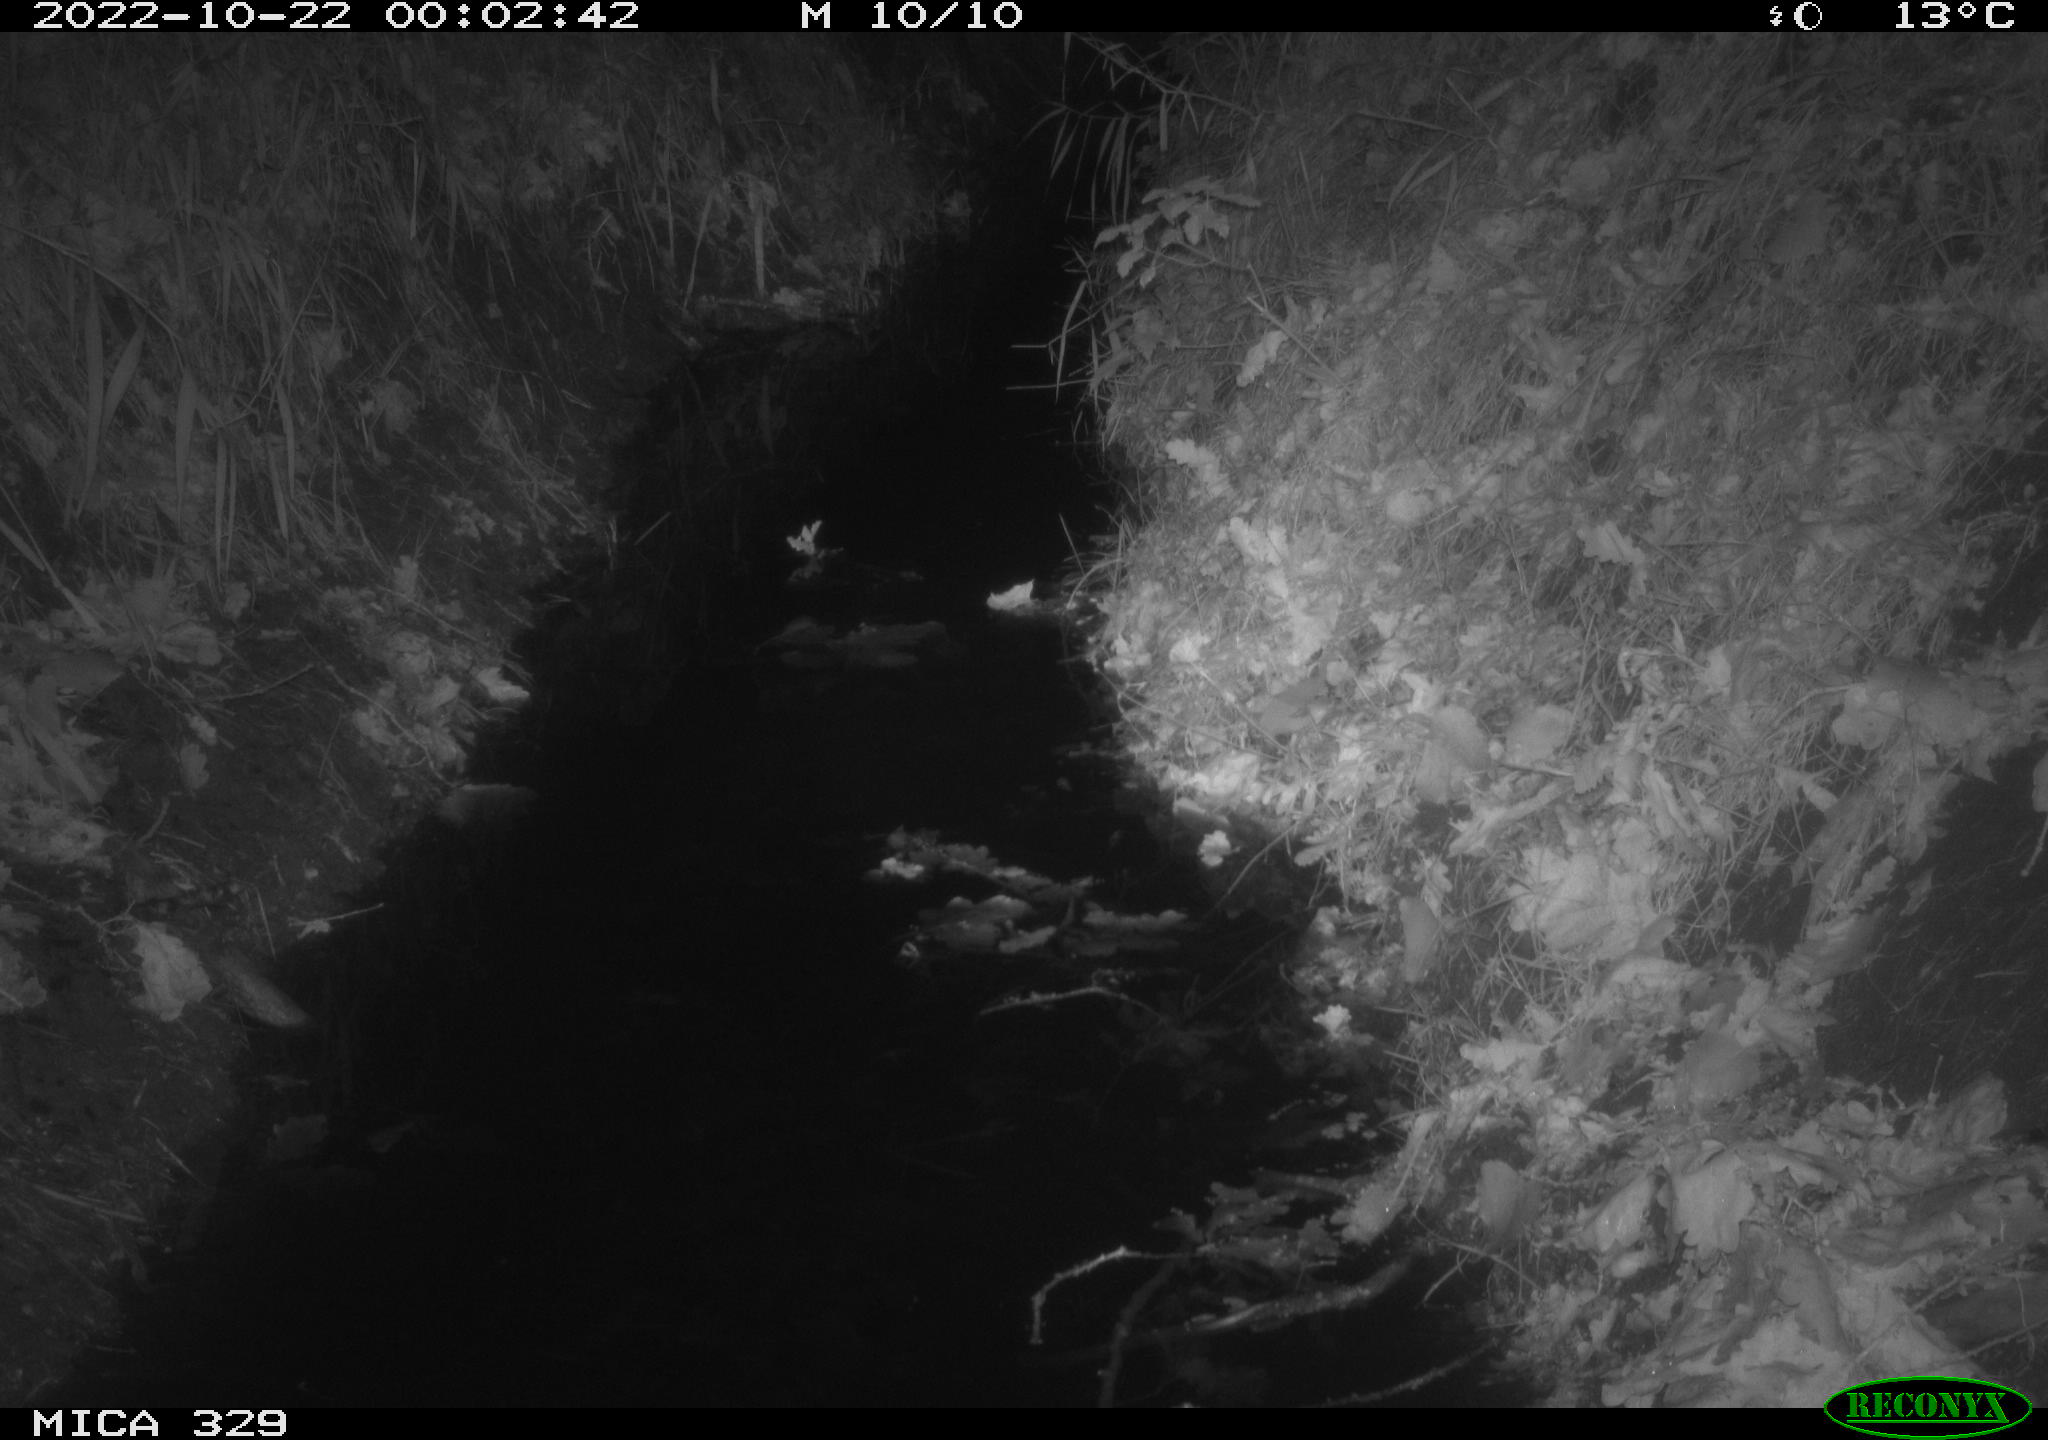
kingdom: Animalia
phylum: Chordata
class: Mammalia
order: Rodentia
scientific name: Rodentia
